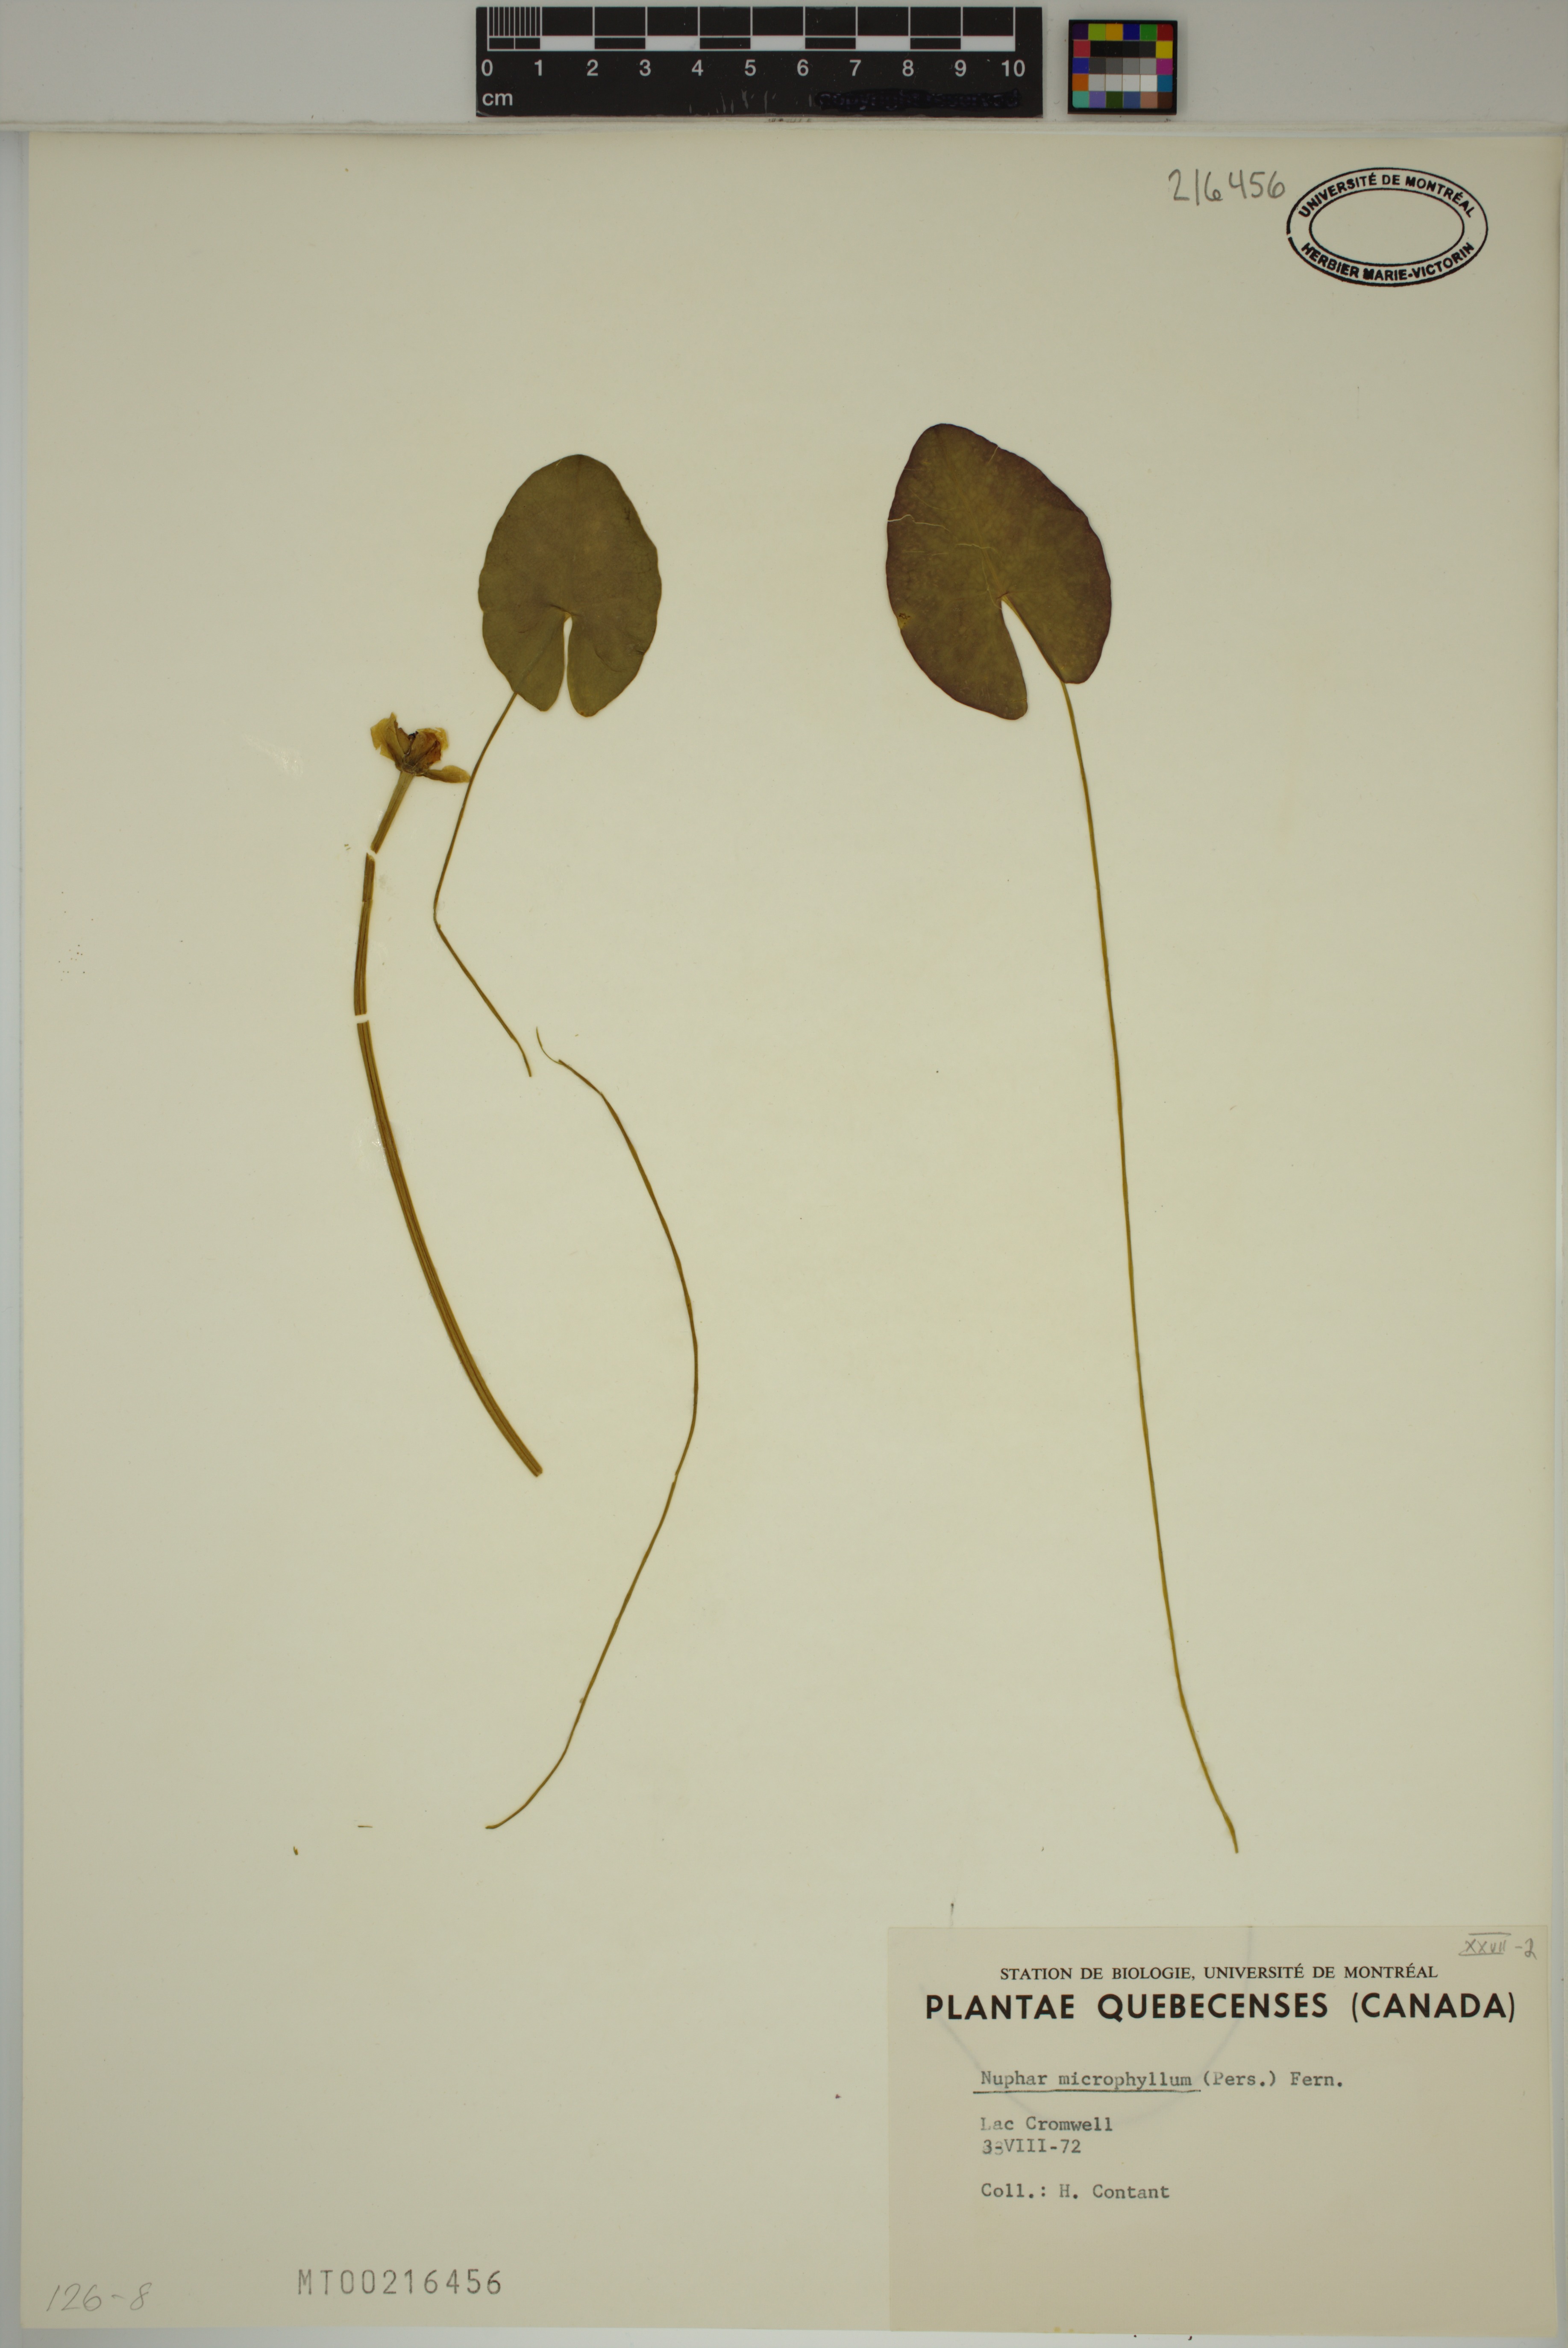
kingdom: Plantae
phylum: Tracheophyta
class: Magnoliopsida
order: Nymphaeales
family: Nymphaeaceae
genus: Nuphar
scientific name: Nuphar microphylla
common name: Small pond-lily
